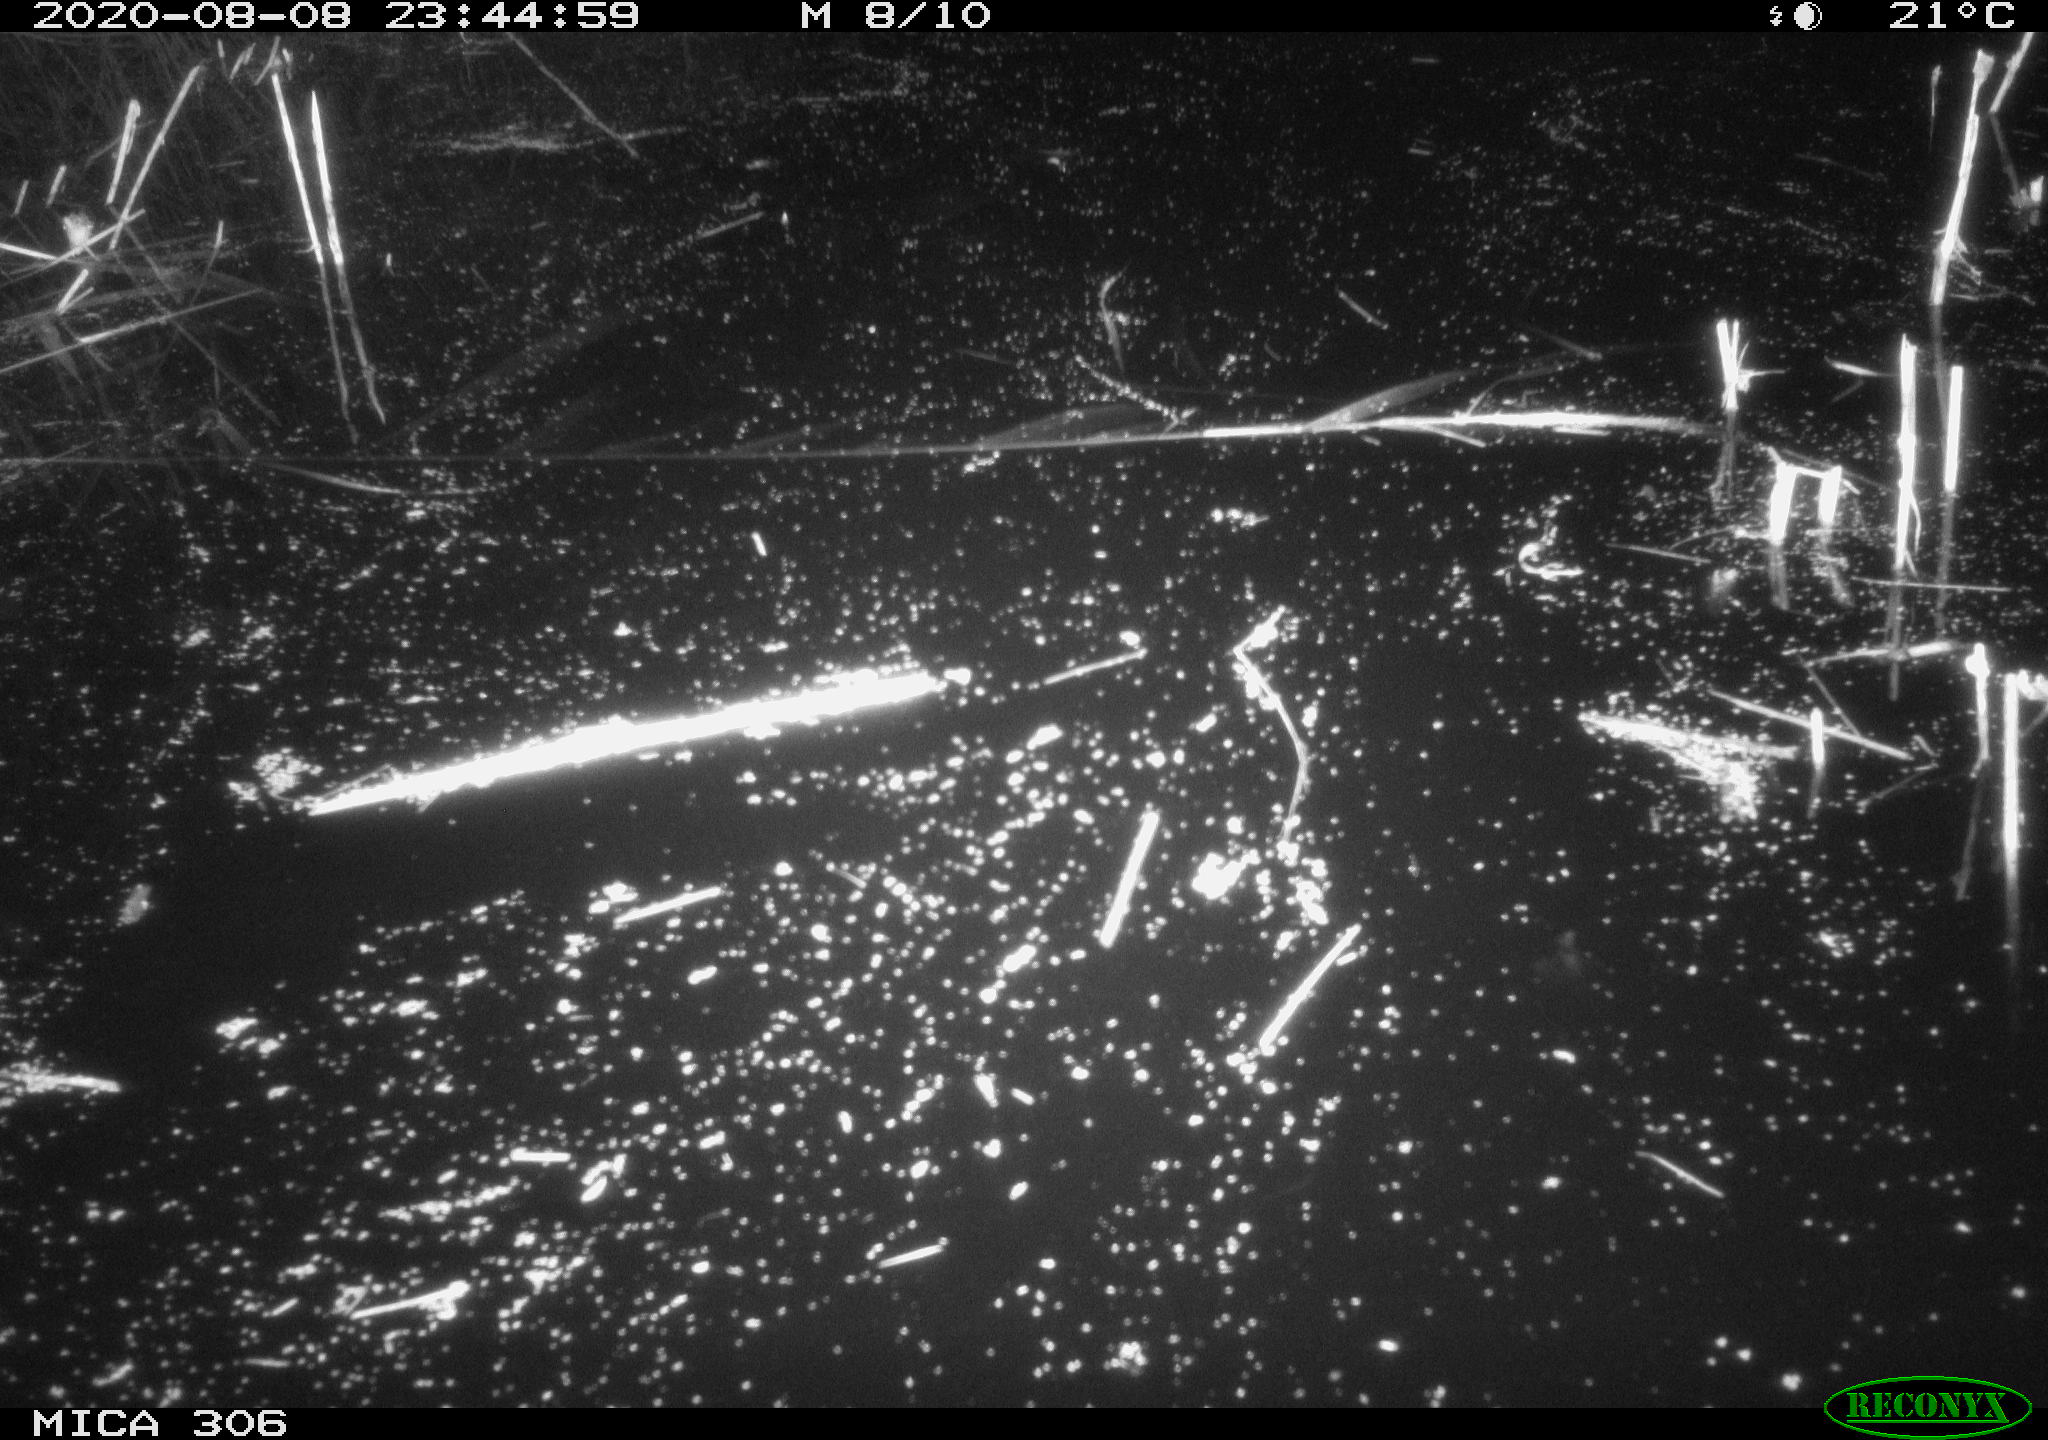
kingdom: Animalia
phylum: Chordata
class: Mammalia
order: Rodentia
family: Muridae
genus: Rattus
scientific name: Rattus norvegicus
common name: Brown rat
